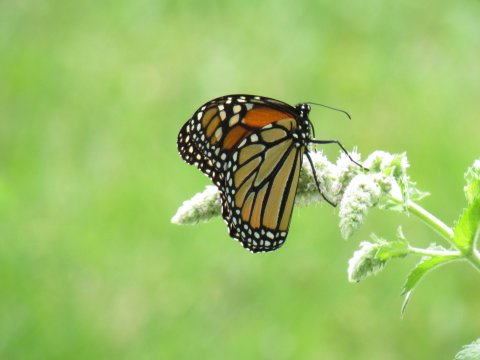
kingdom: Animalia
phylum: Arthropoda
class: Insecta
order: Lepidoptera
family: Nymphalidae
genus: Danaus
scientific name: Danaus plexippus
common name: Monarch
